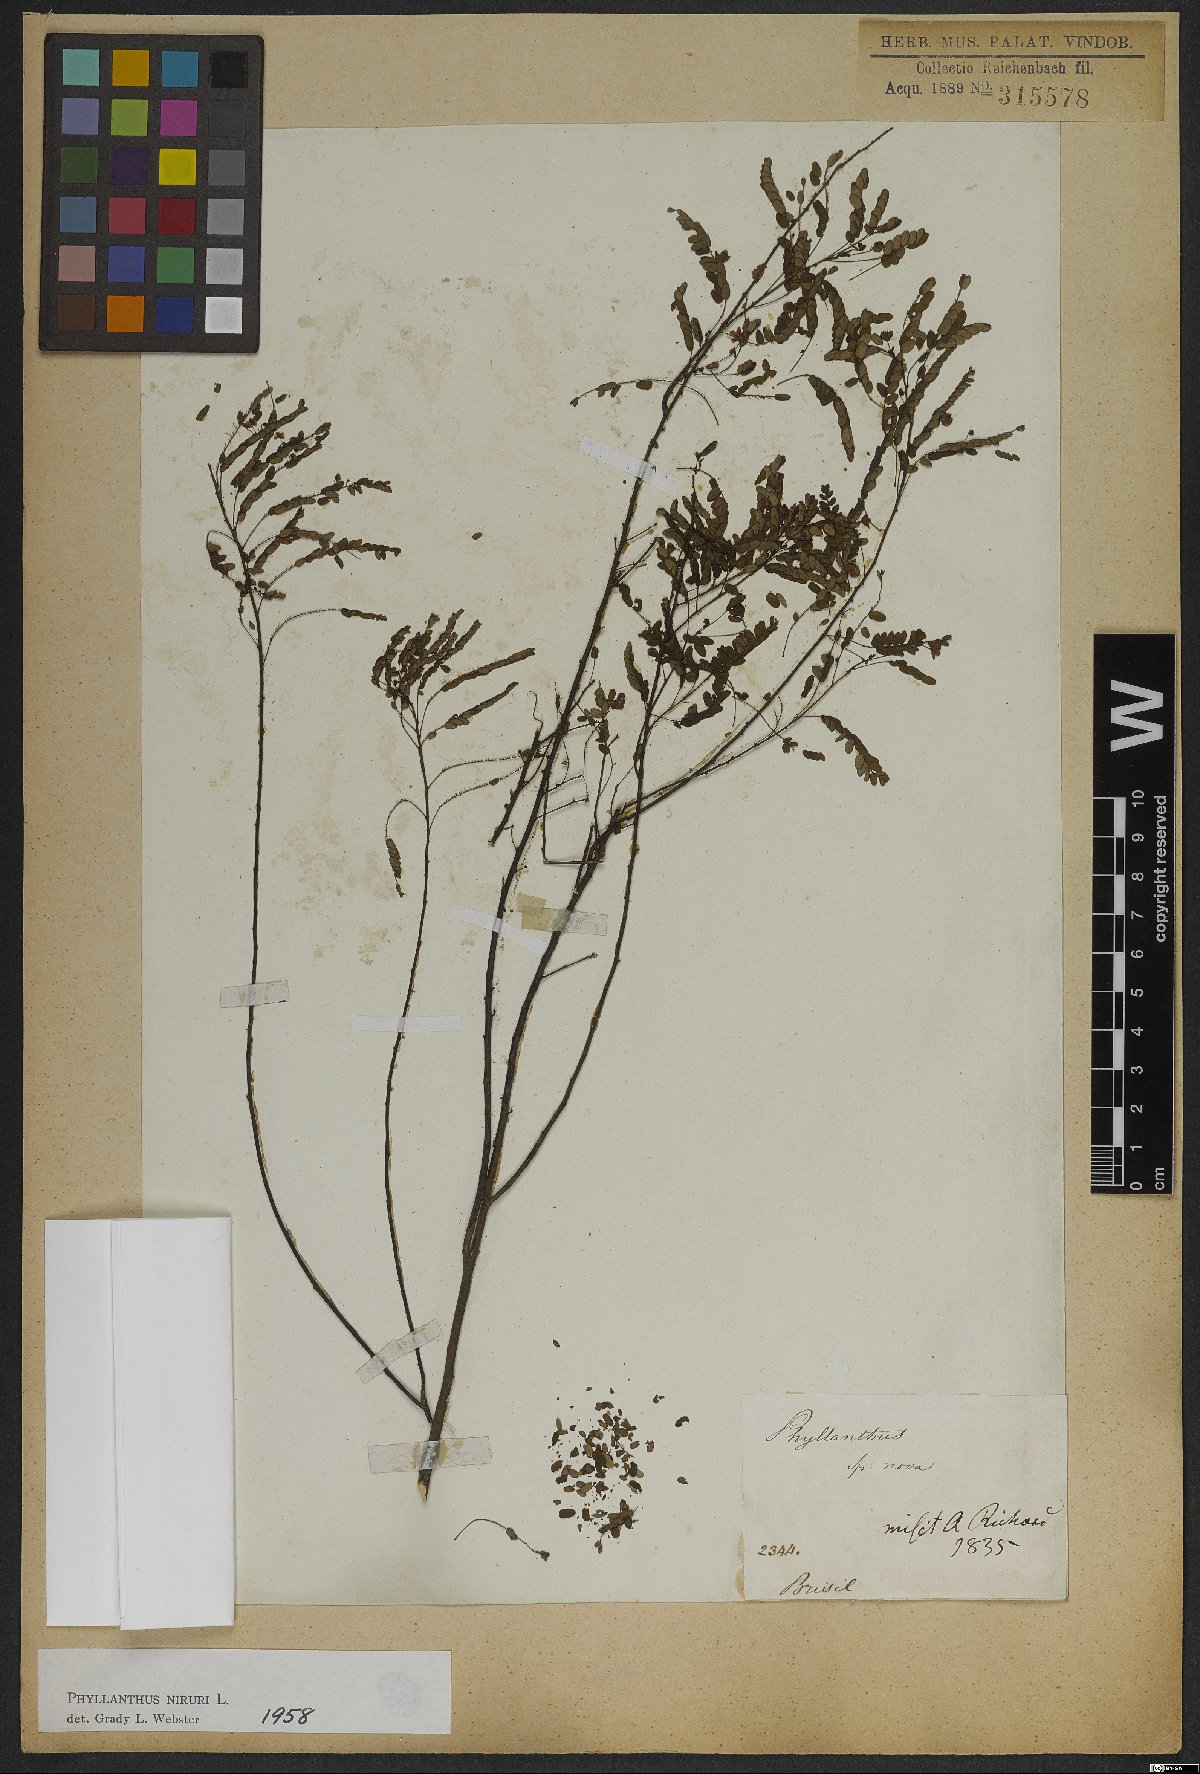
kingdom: Plantae
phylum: Tracheophyta
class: Magnoliopsida
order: Malpighiales
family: Phyllanthaceae
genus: Phyllanthus
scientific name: Phyllanthus niruri
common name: Niruri
